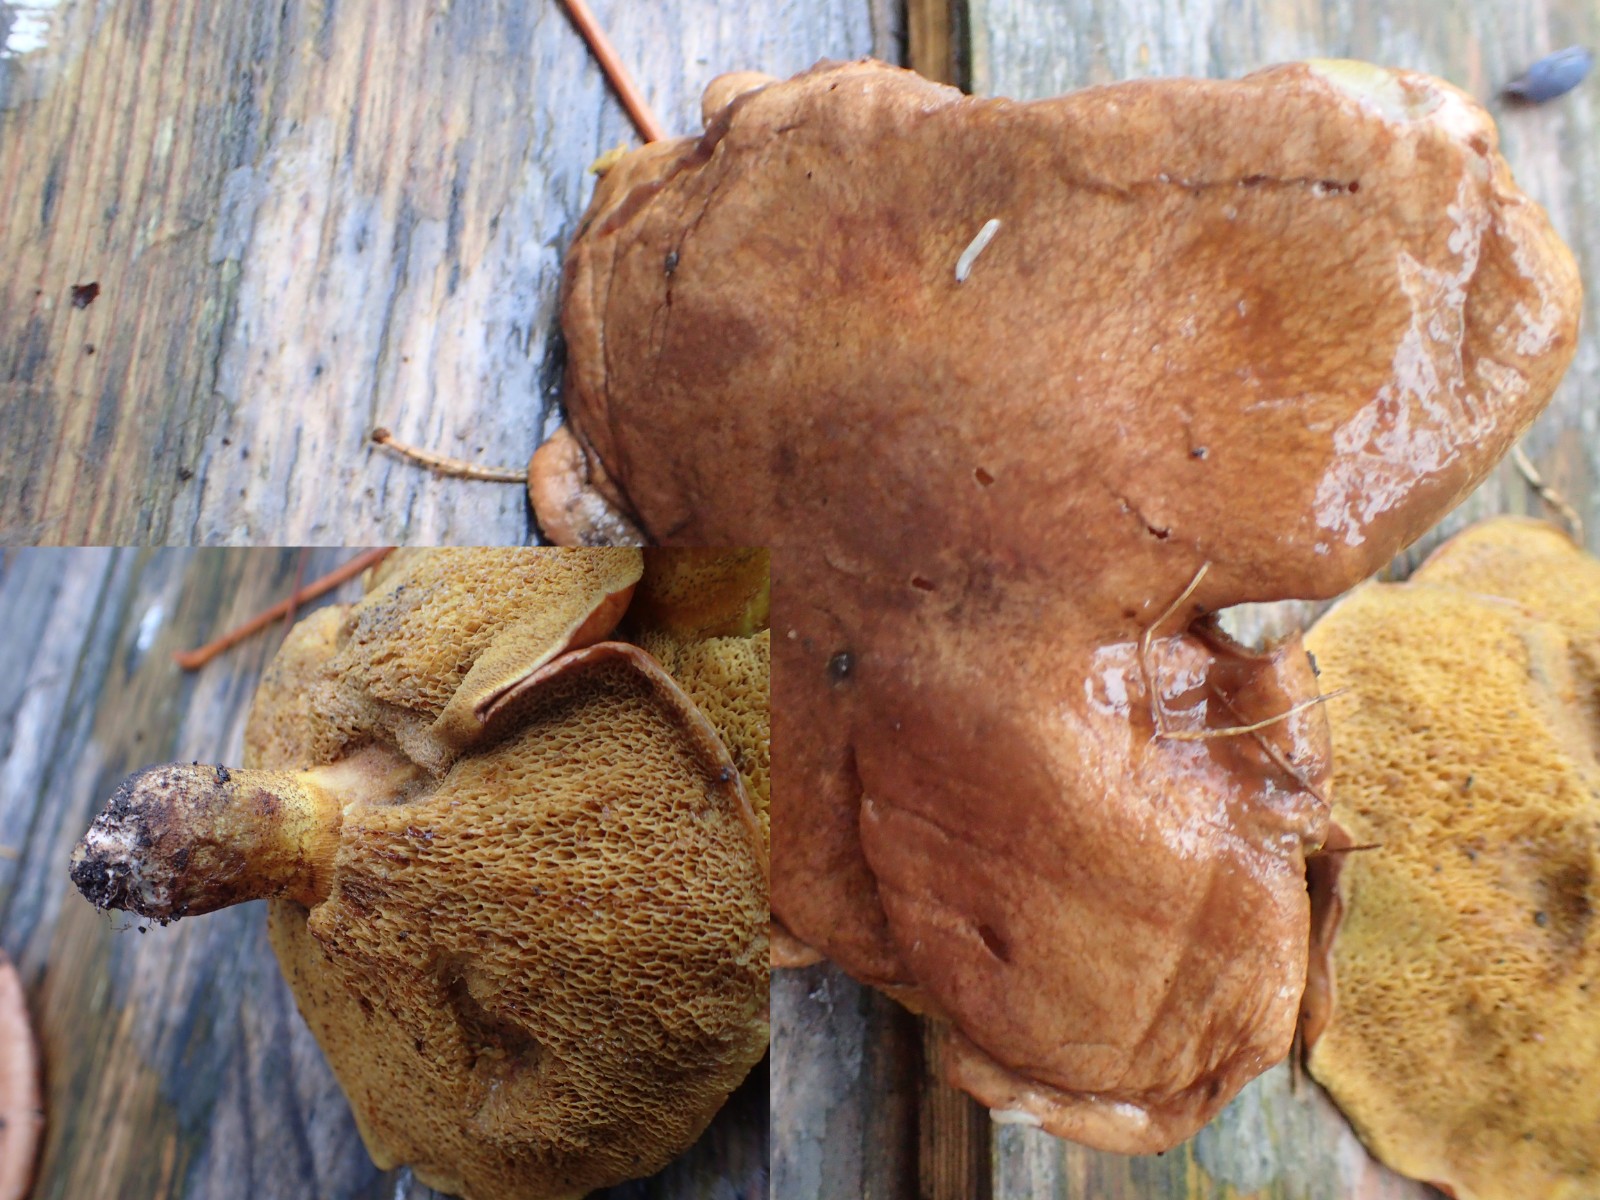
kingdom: Fungi
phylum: Basidiomycota
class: Agaricomycetes
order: Boletales
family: Suillaceae
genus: Suillus
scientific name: Suillus collinitus
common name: rosafodet slimrørhat
